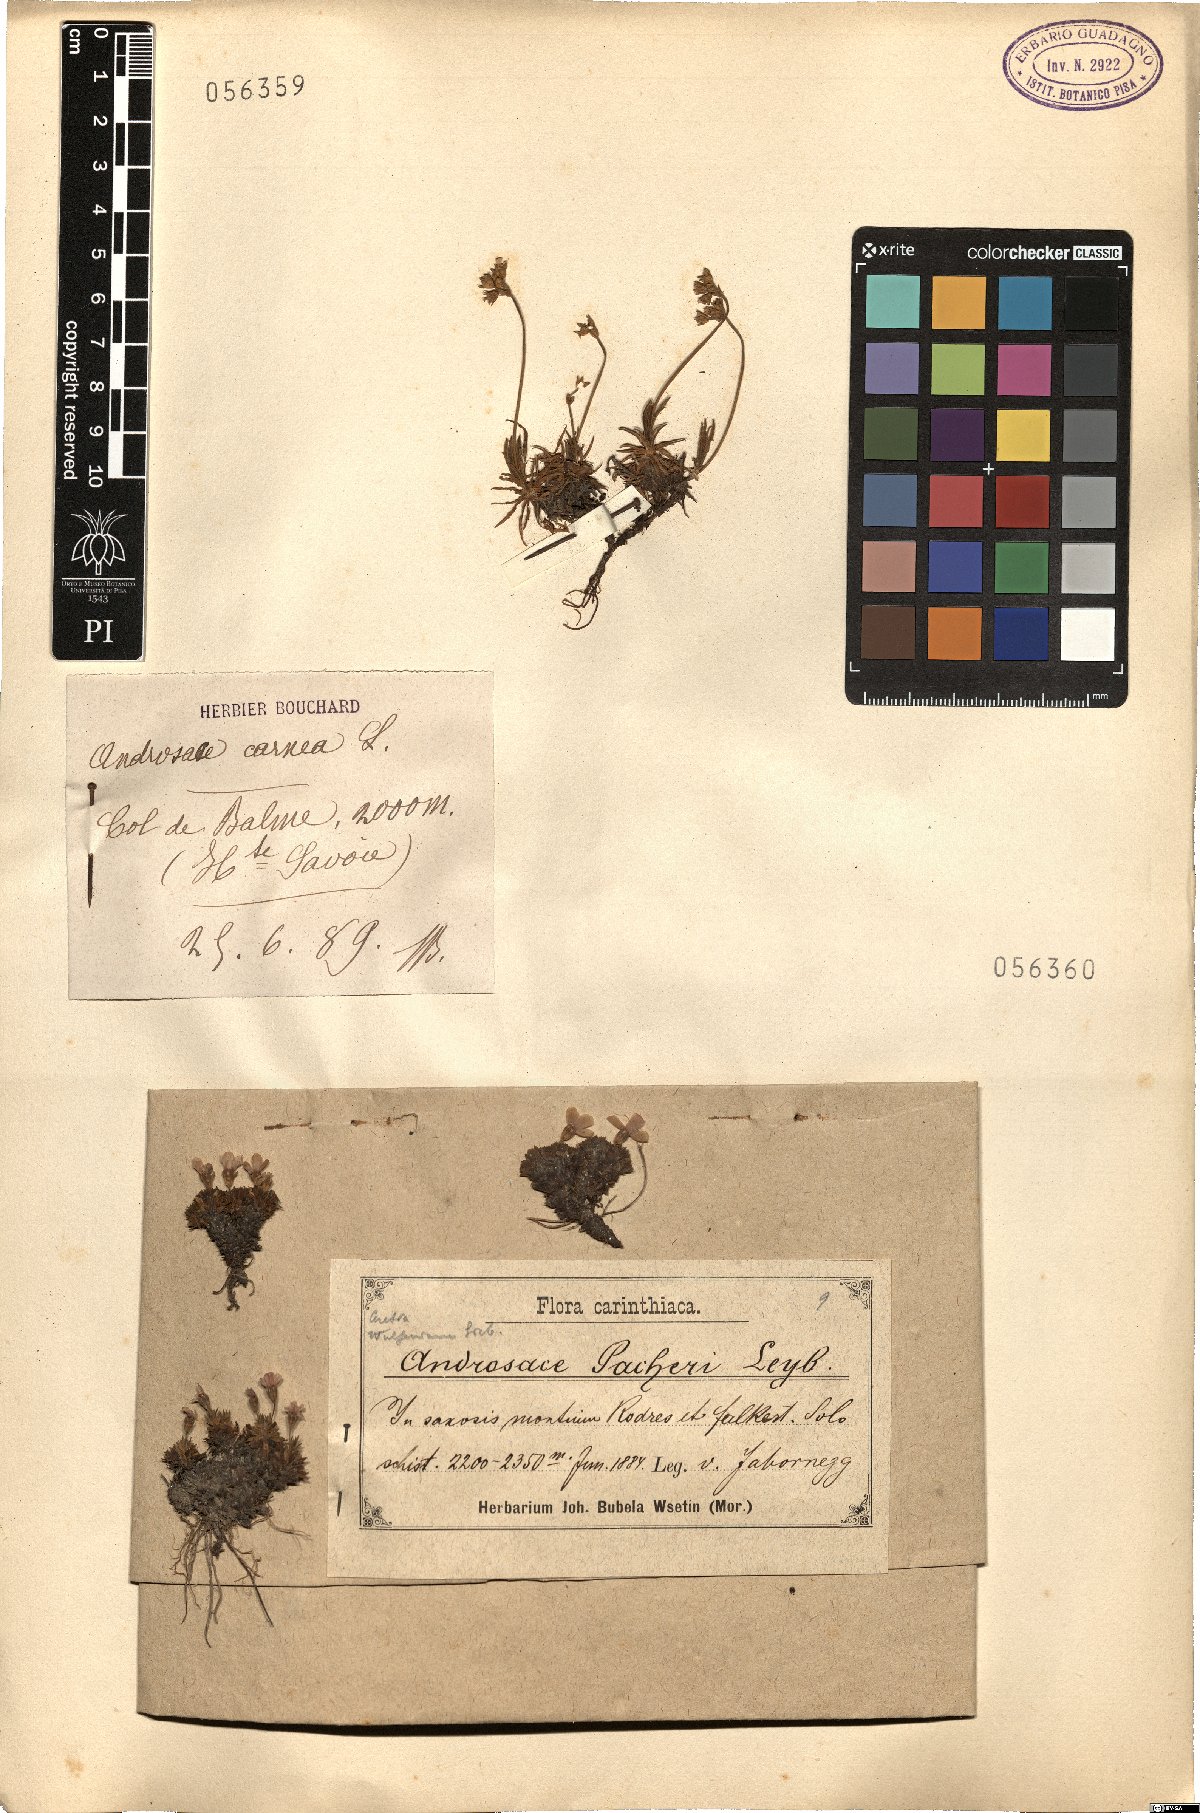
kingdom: Plantae
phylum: Tracheophyta
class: Magnoliopsida
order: Ericales
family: Primulaceae
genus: Androsace
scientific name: Androsace obtusifolia
